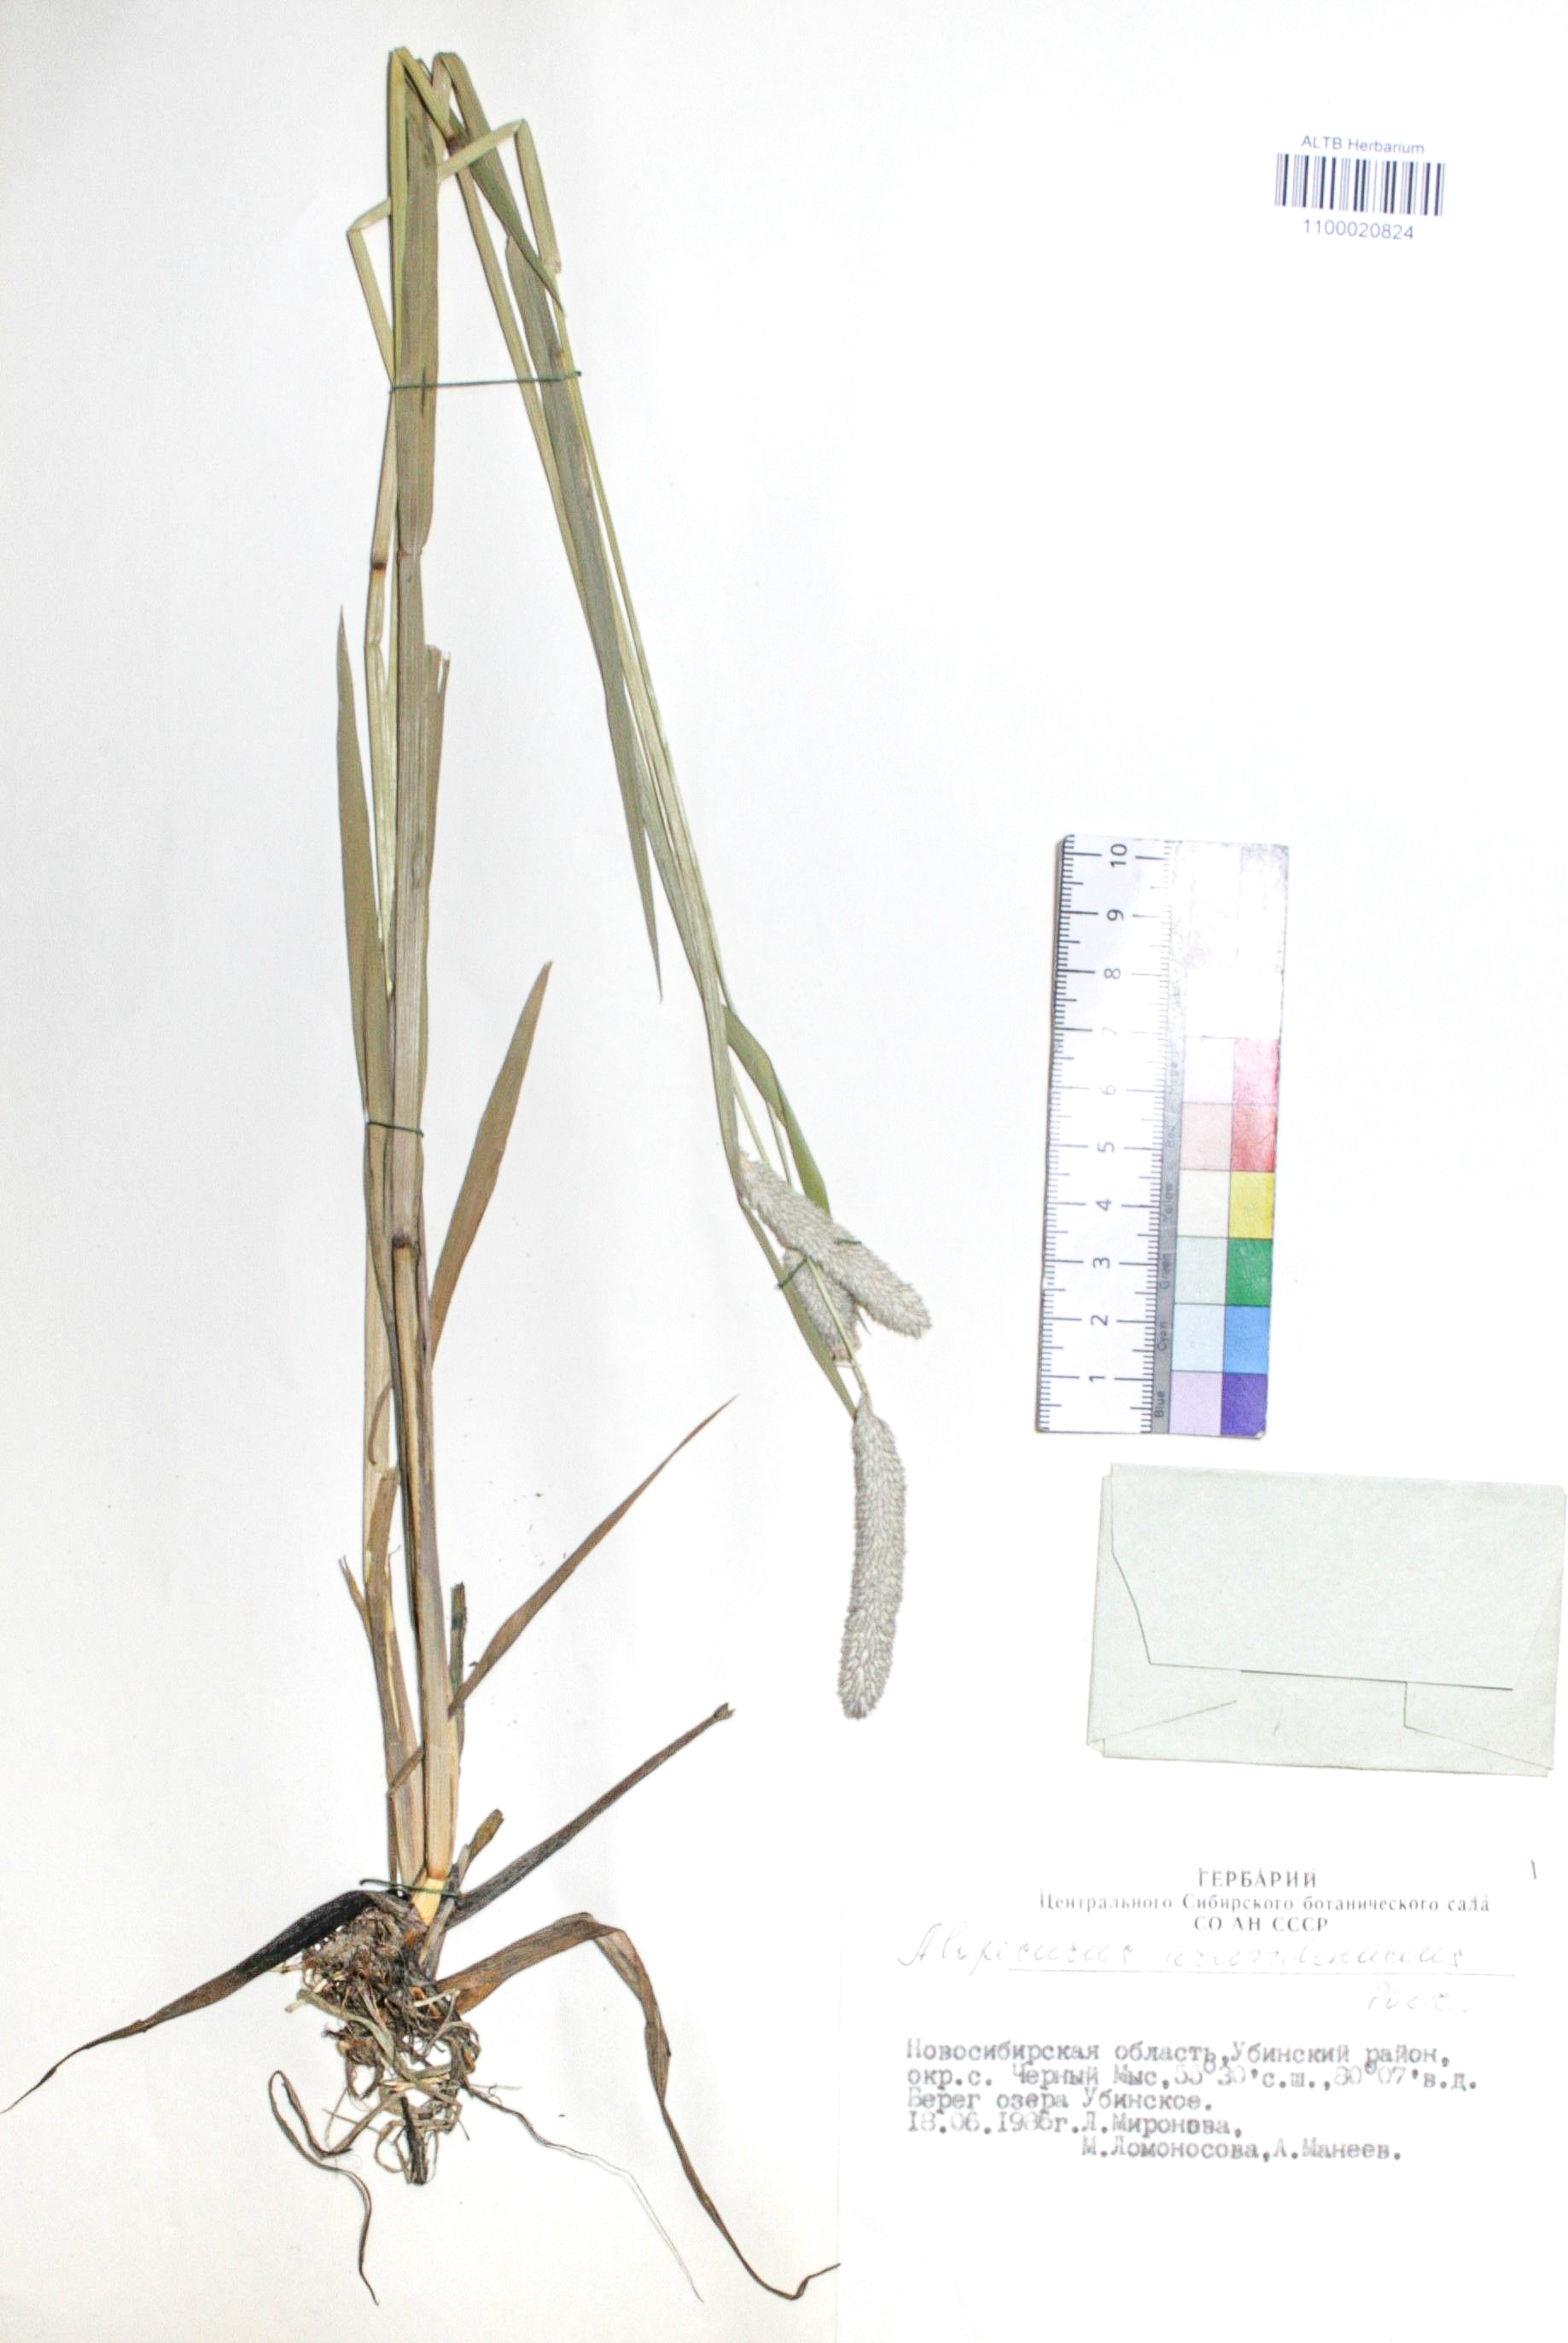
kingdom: Plantae
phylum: Tracheophyta
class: Liliopsida
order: Poales
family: Poaceae
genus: Alopecurus
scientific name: Alopecurus arundinaceus
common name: Creeping meadow foxtail
